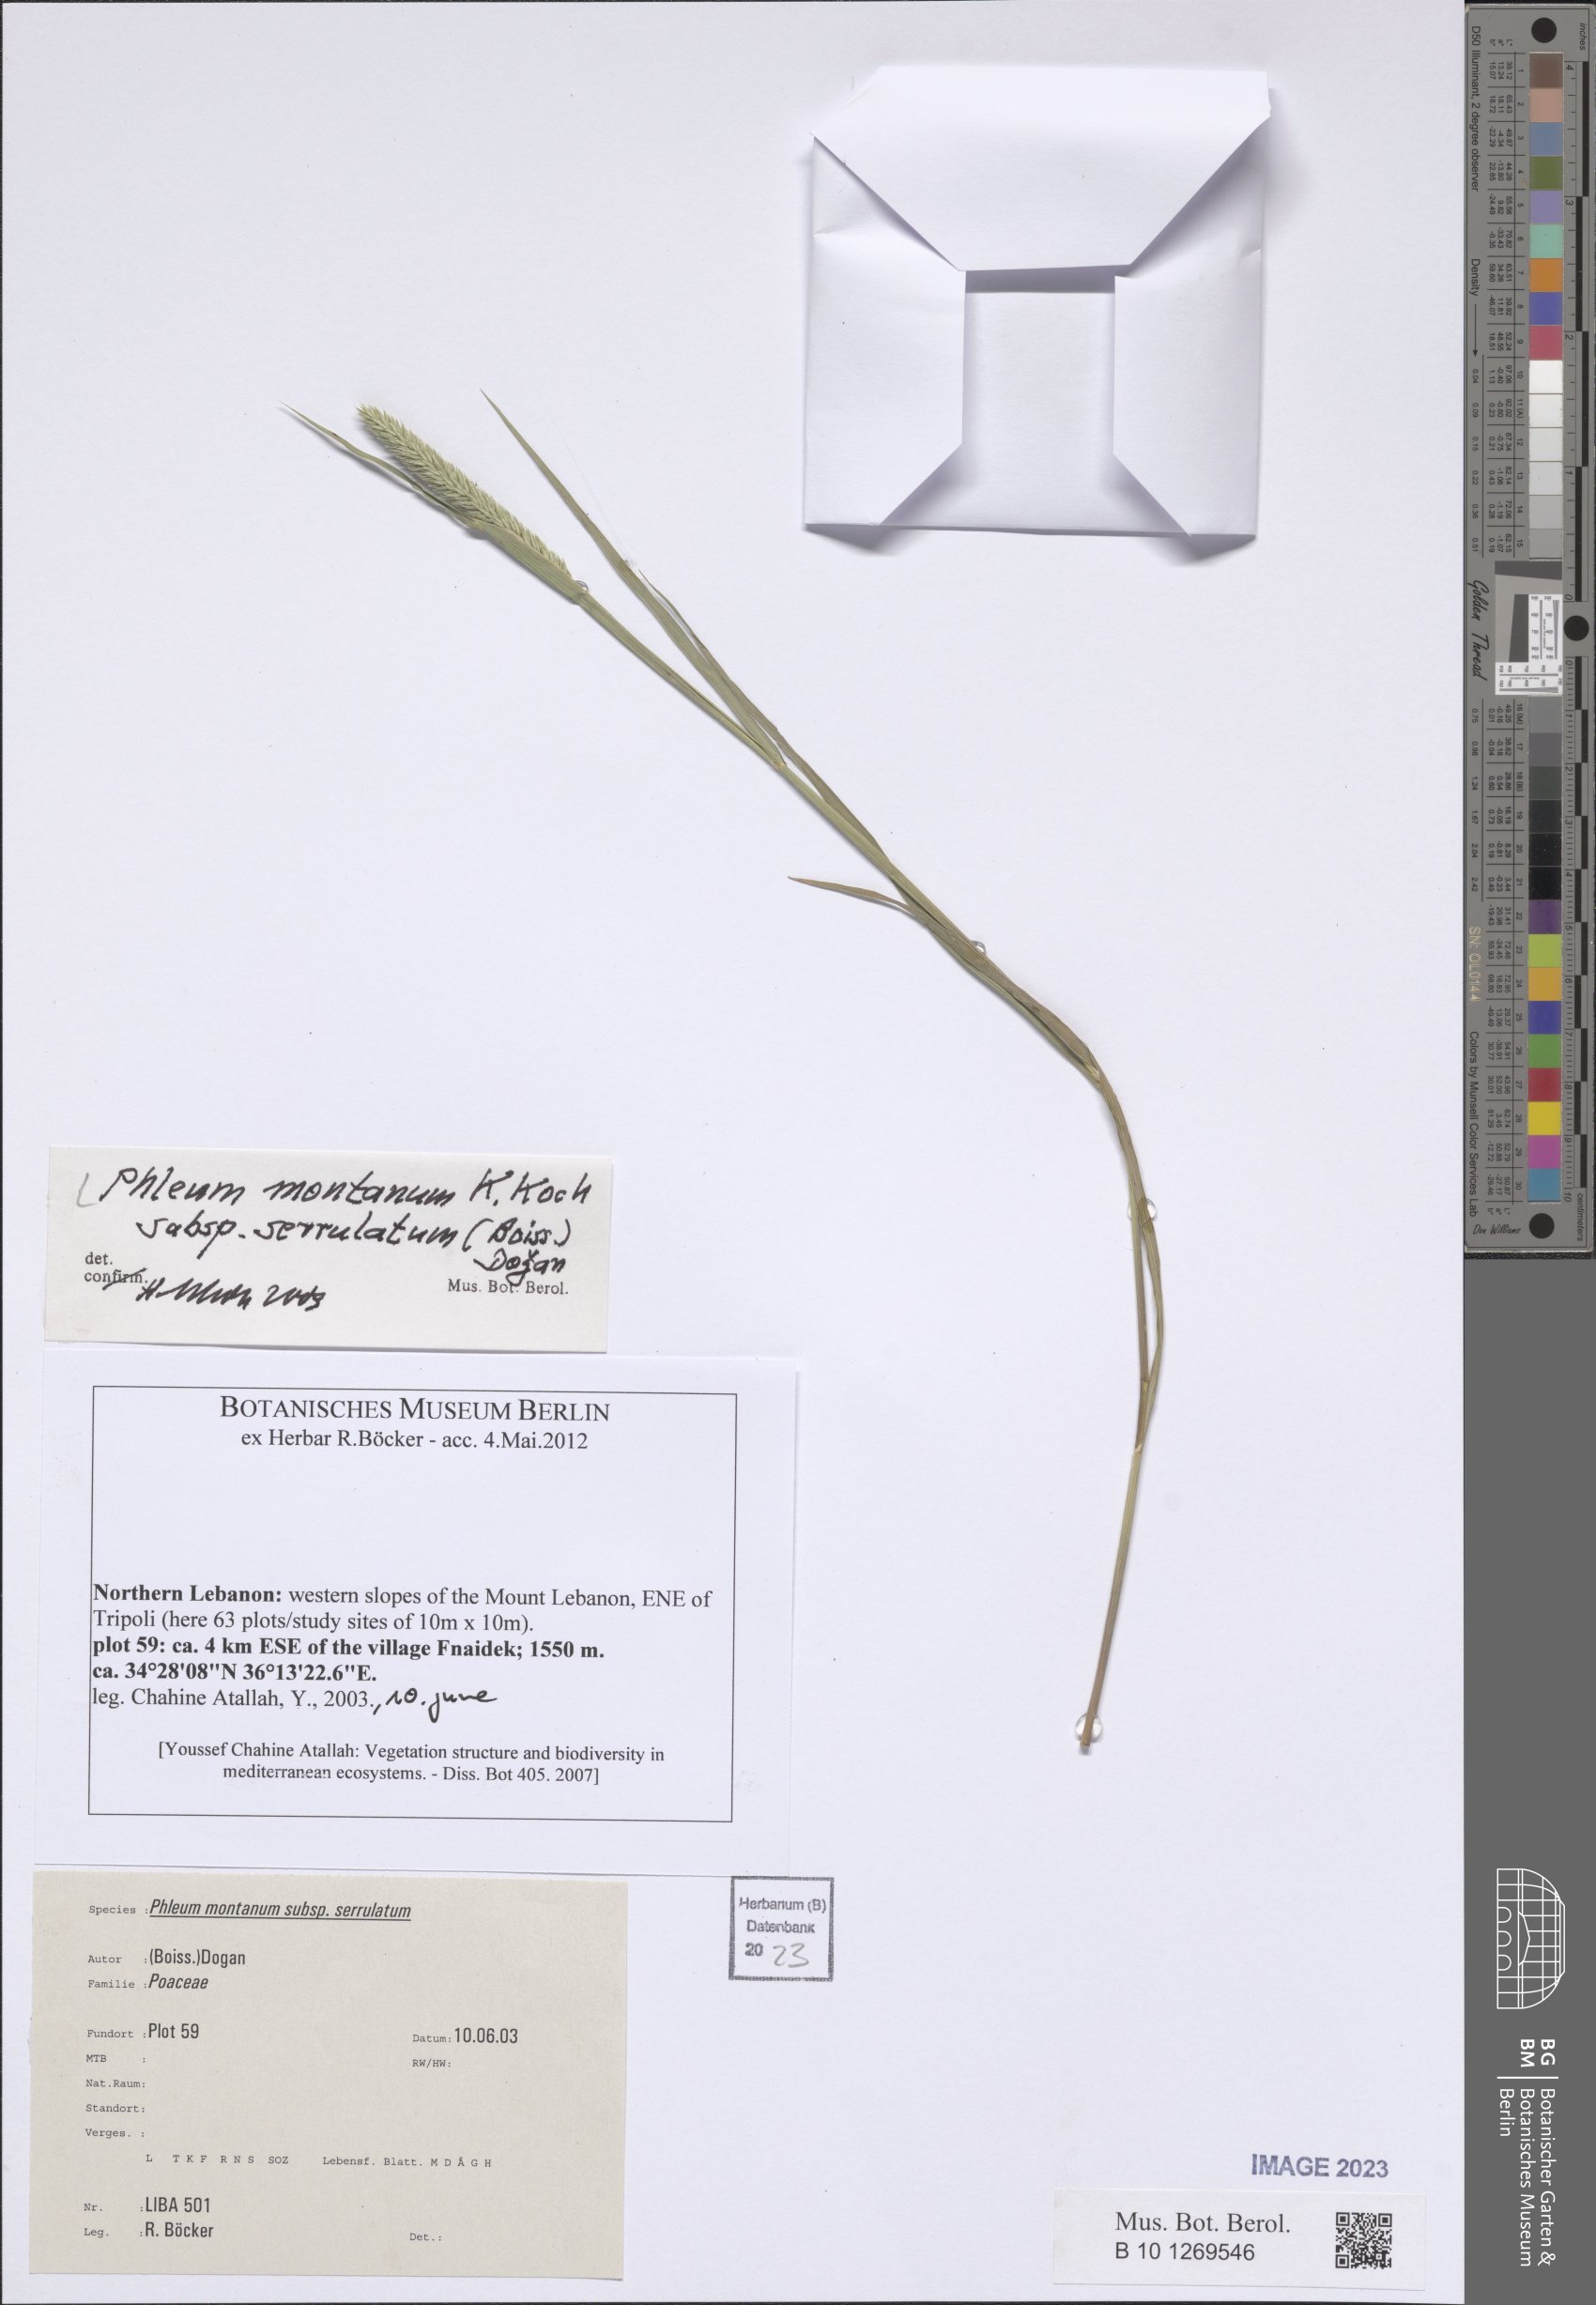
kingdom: Plantae
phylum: Tracheophyta
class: Liliopsida
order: Poales
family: Poaceae
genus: Phleum
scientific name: Phleum montanum
